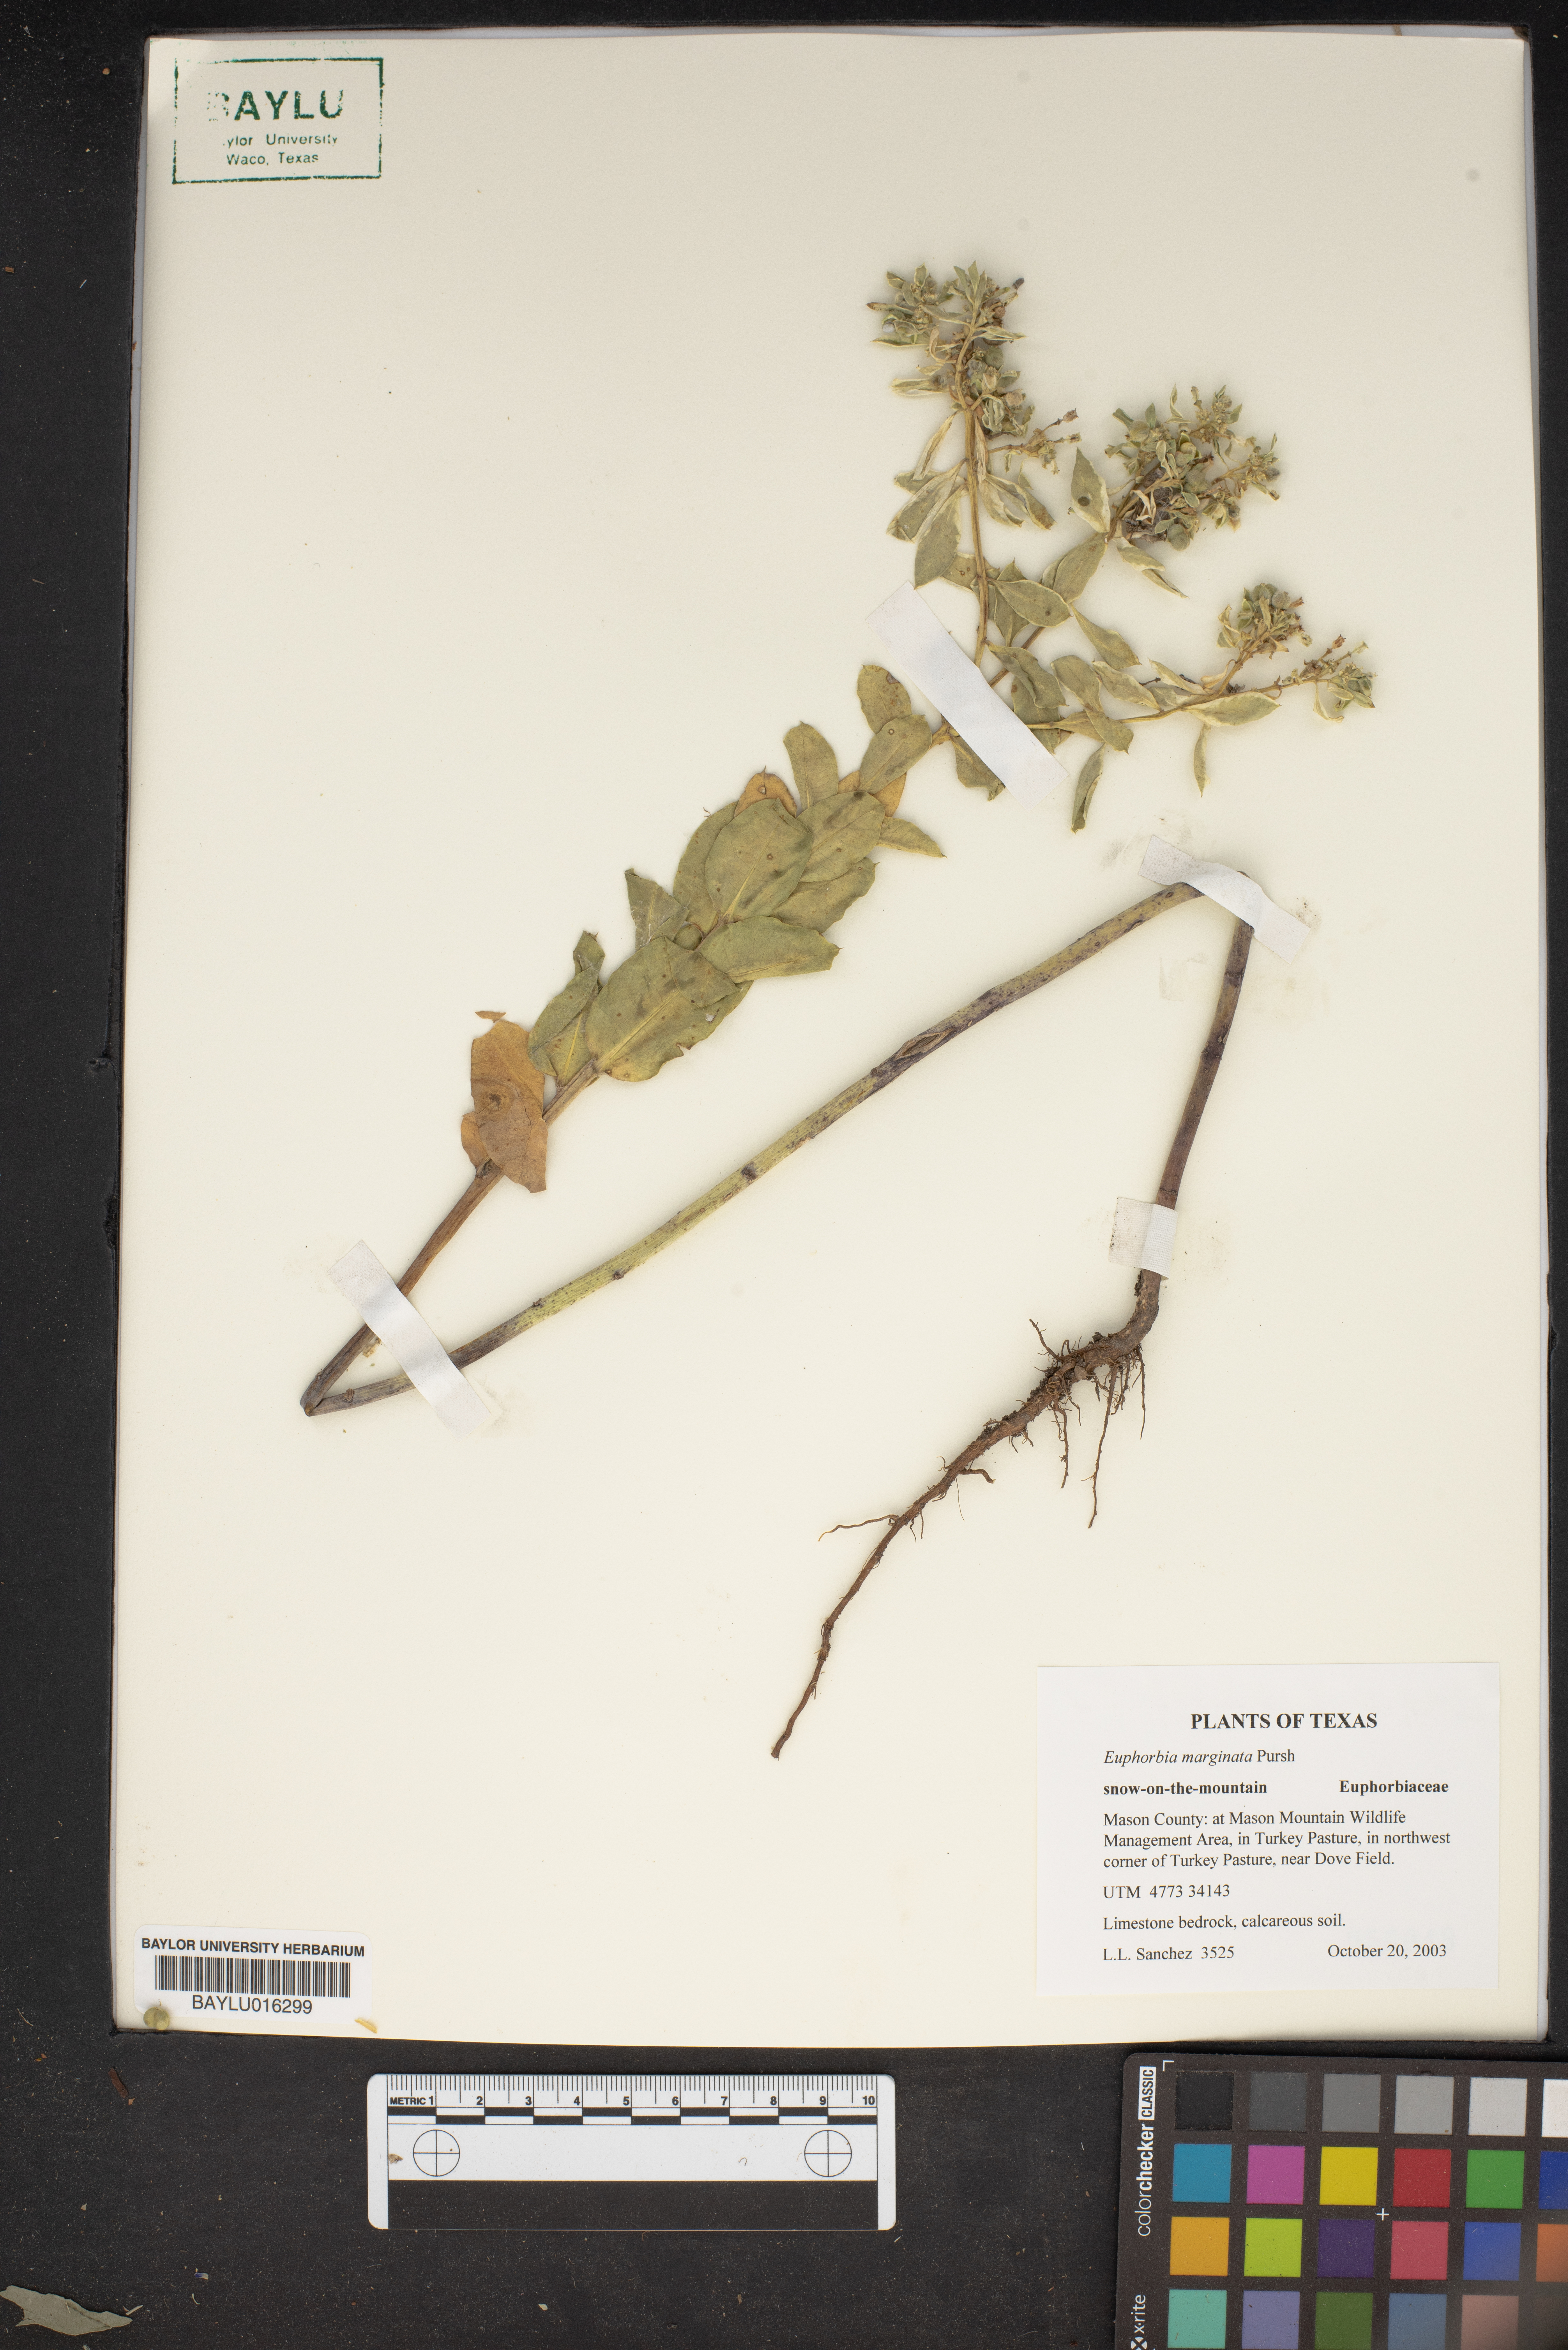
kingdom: Plantae
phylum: Tracheophyta
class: Magnoliopsida
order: Malpighiales
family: Euphorbiaceae
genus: Euphorbia
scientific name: Euphorbia marginata
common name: Ghostweed
